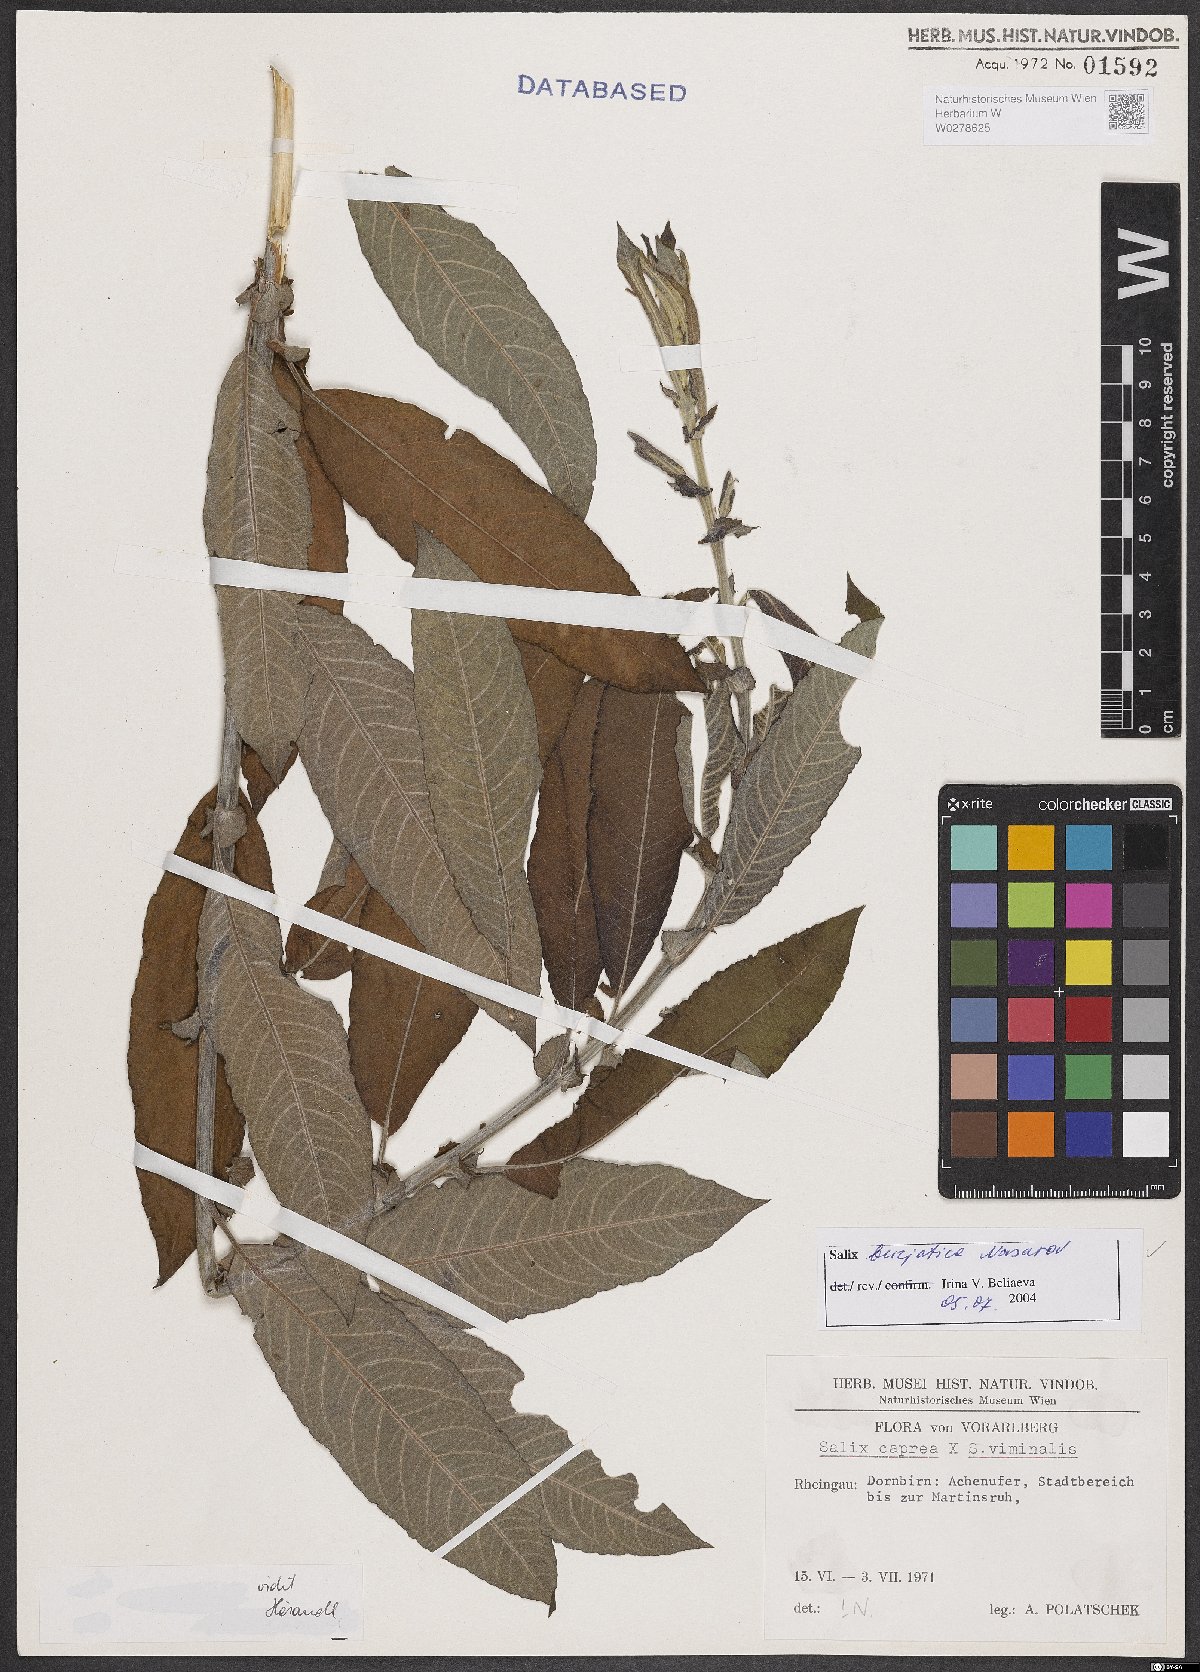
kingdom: Plantae
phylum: Tracheophyta
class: Magnoliopsida
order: Malpighiales
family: Salicaceae
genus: Salix
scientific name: Salix gmelinii
